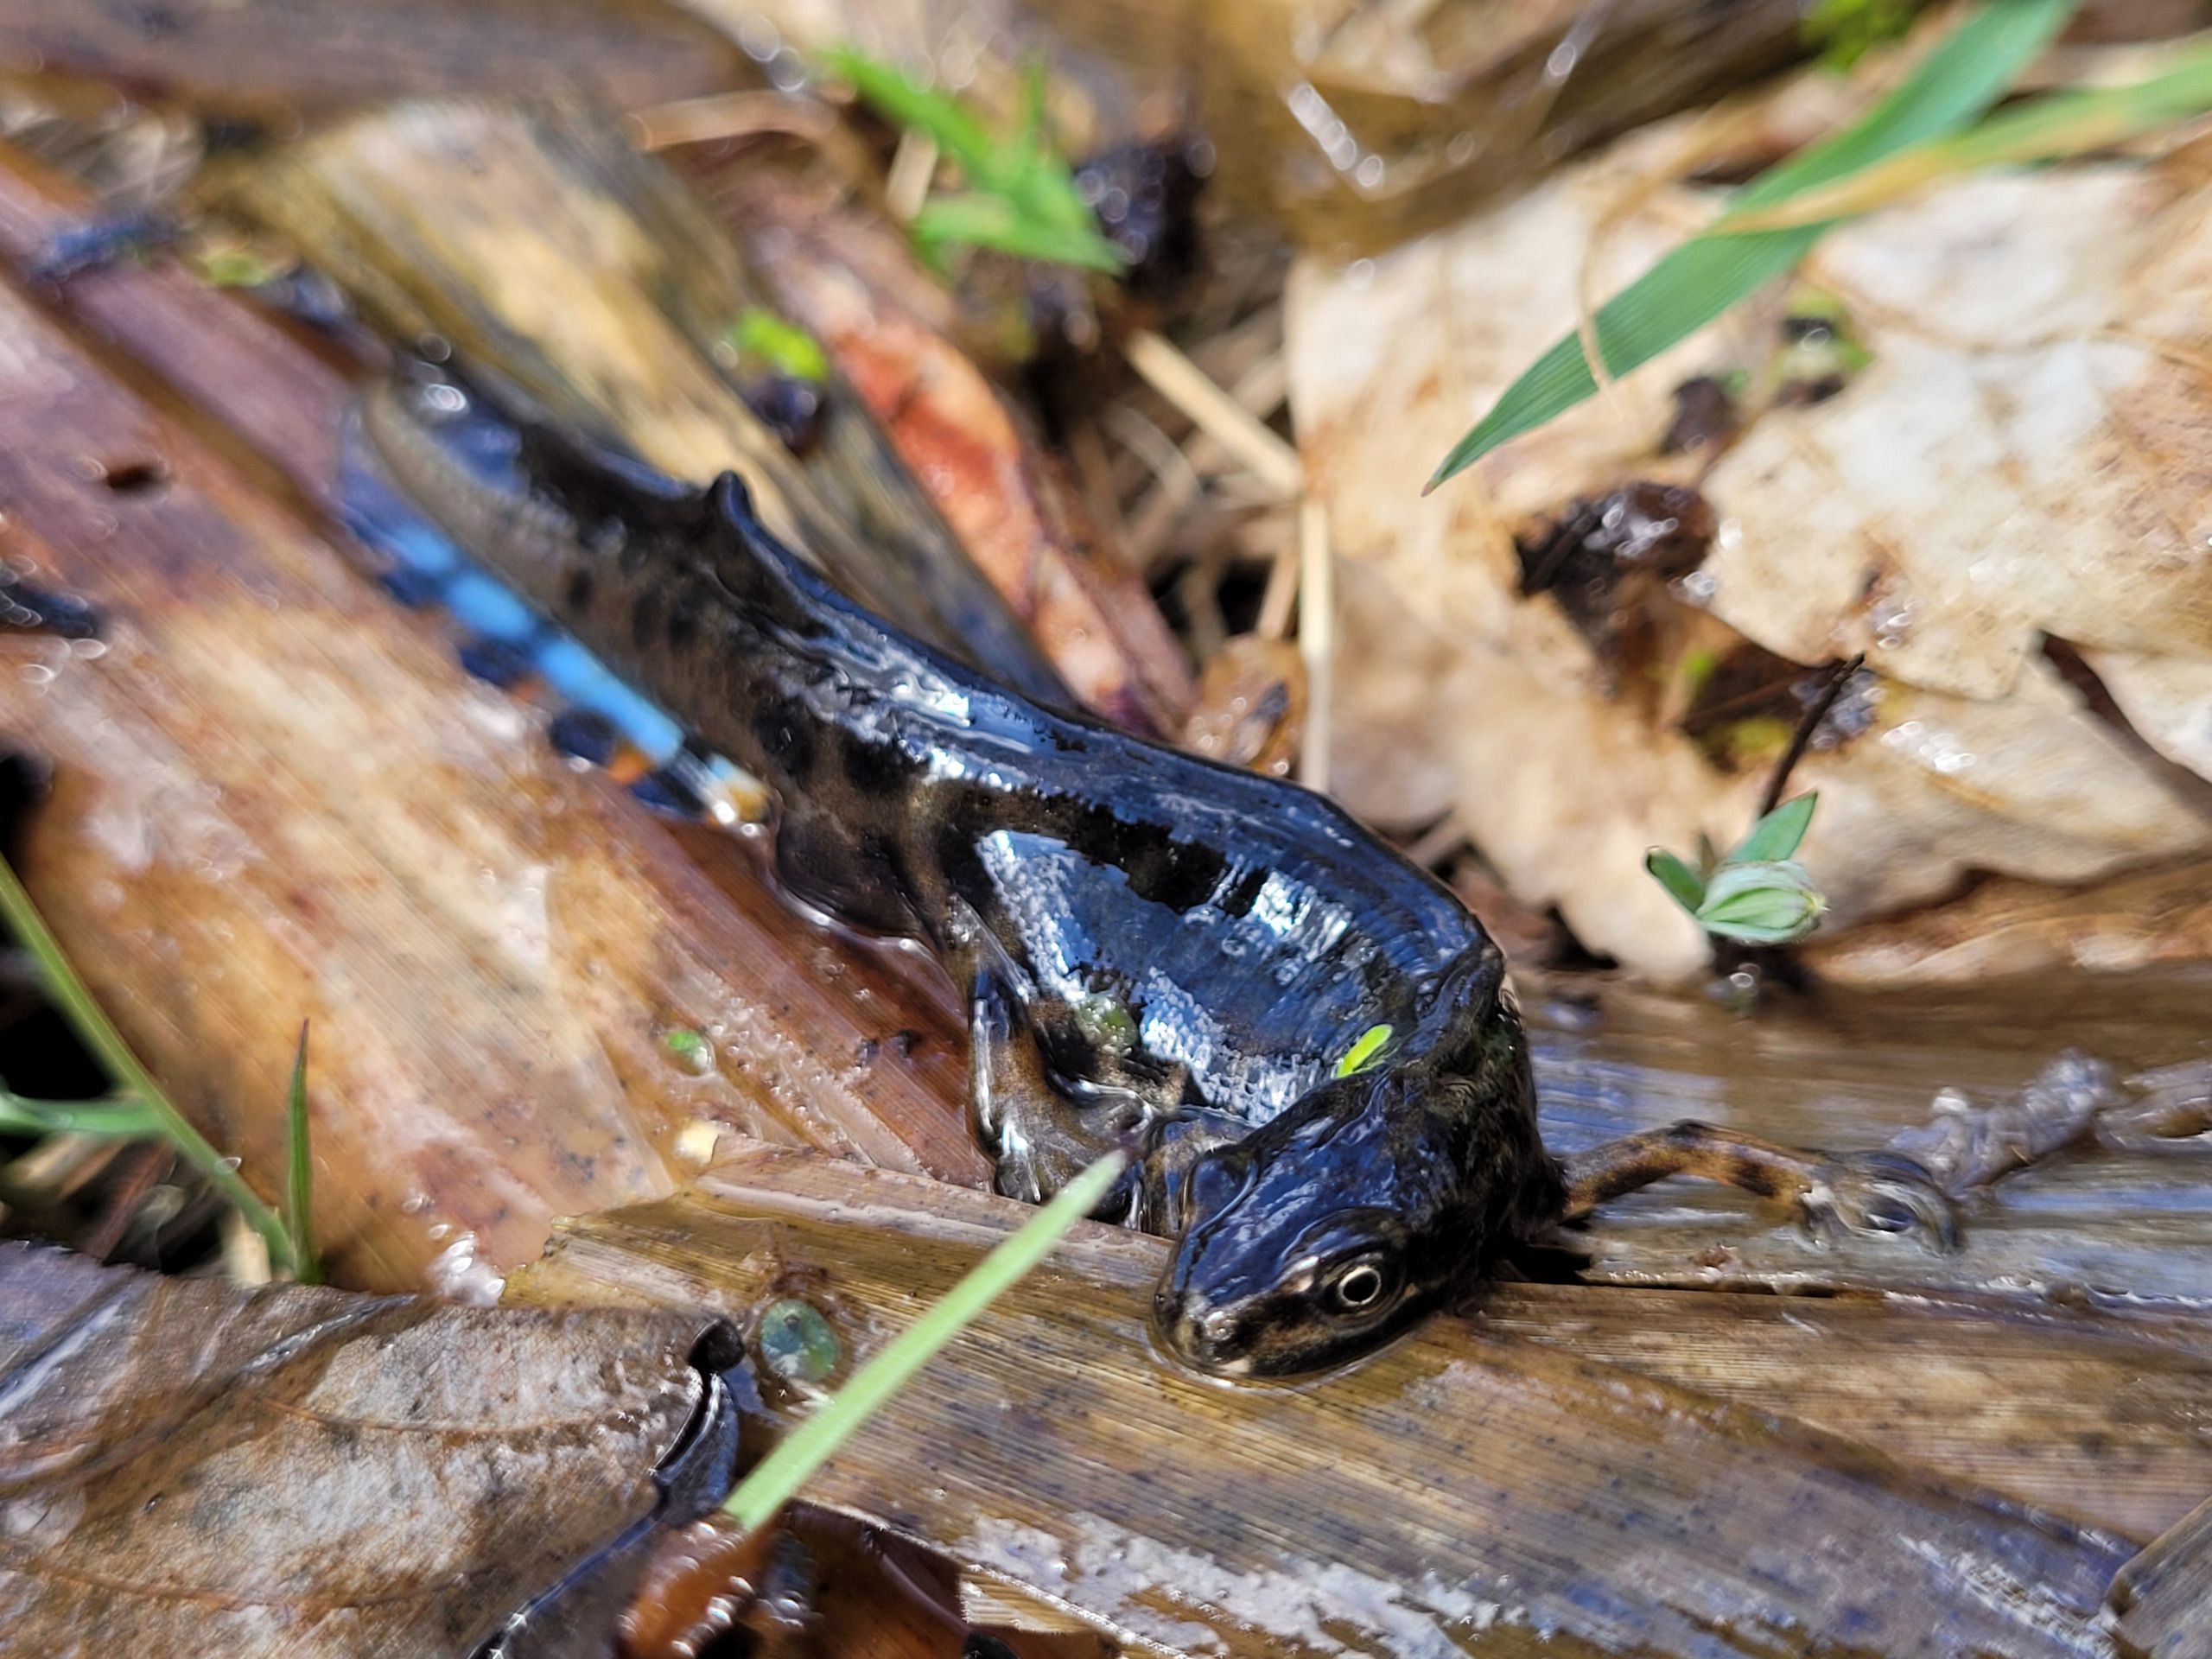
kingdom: Animalia
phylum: Chordata
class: Amphibia
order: Caudata
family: Salamandridae
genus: Lissotriton
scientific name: Lissotriton vulgaris
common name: Lille vandsalamander
